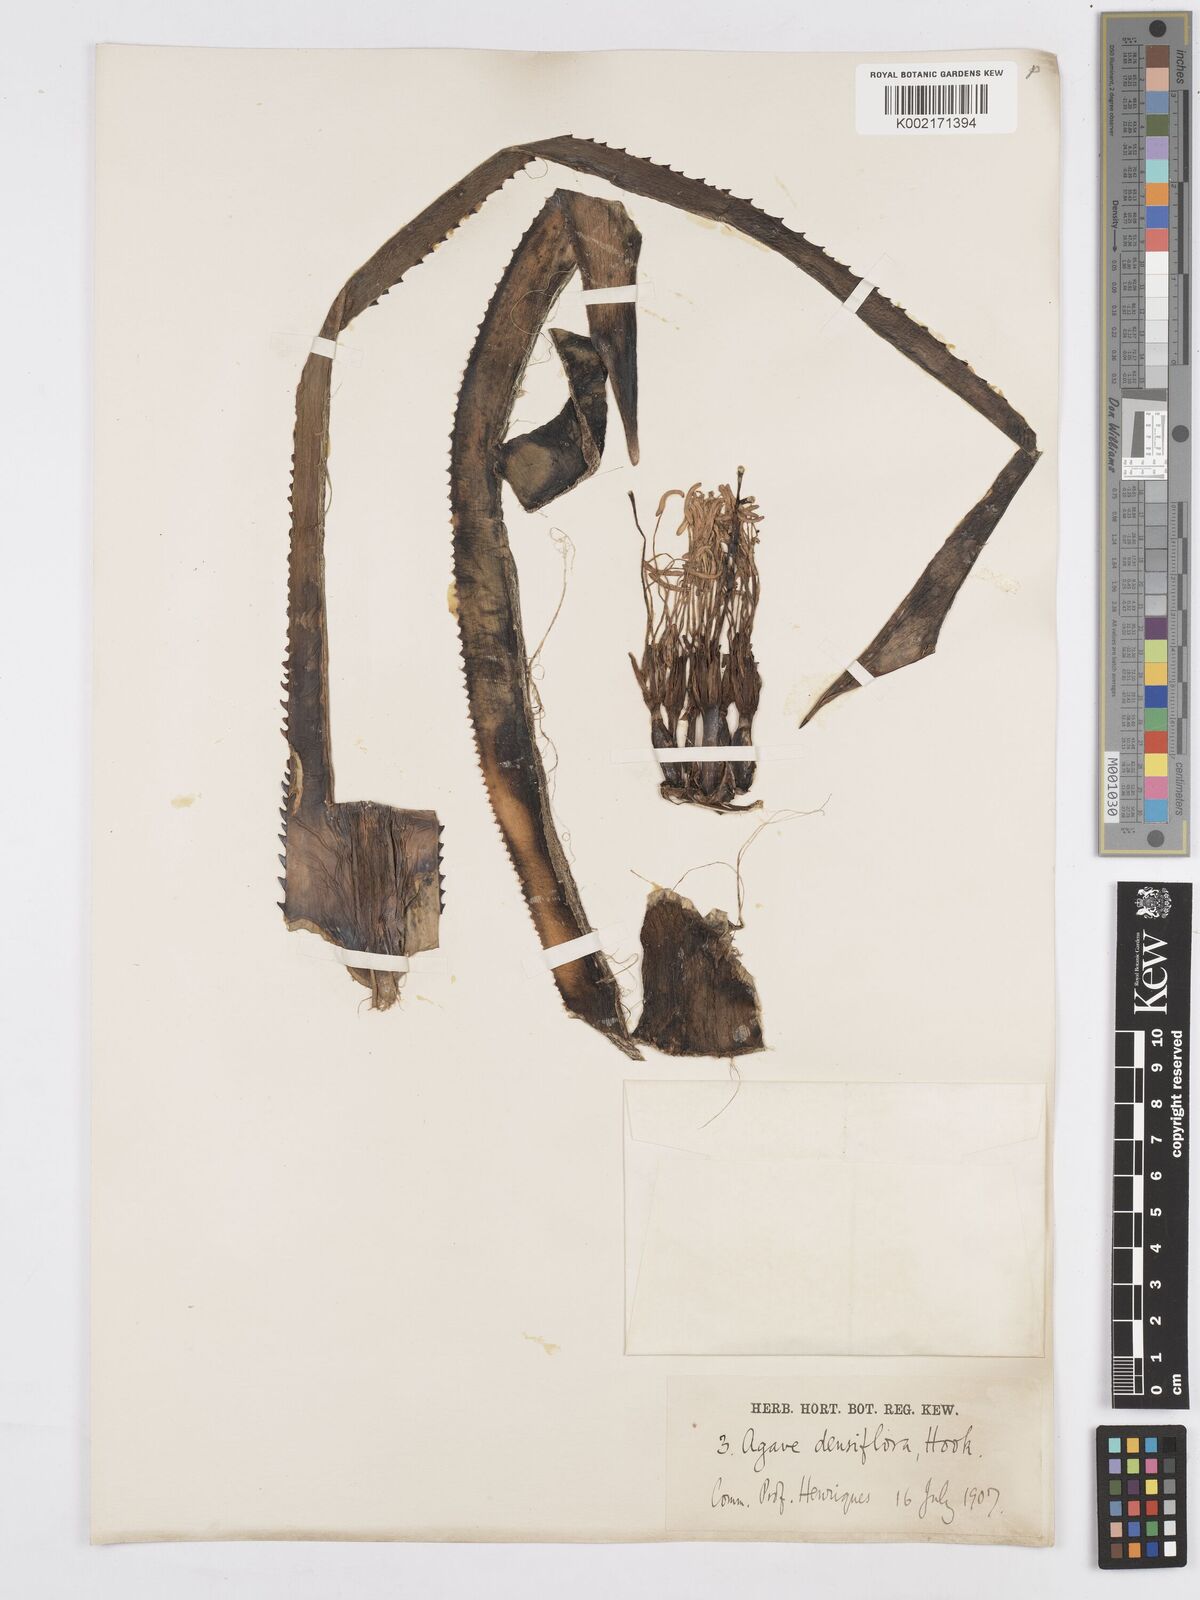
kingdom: Plantae
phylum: Tracheophyta
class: Liliopsida
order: Asparagales
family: Asparagaceae
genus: Agave
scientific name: Agave polyacantha
